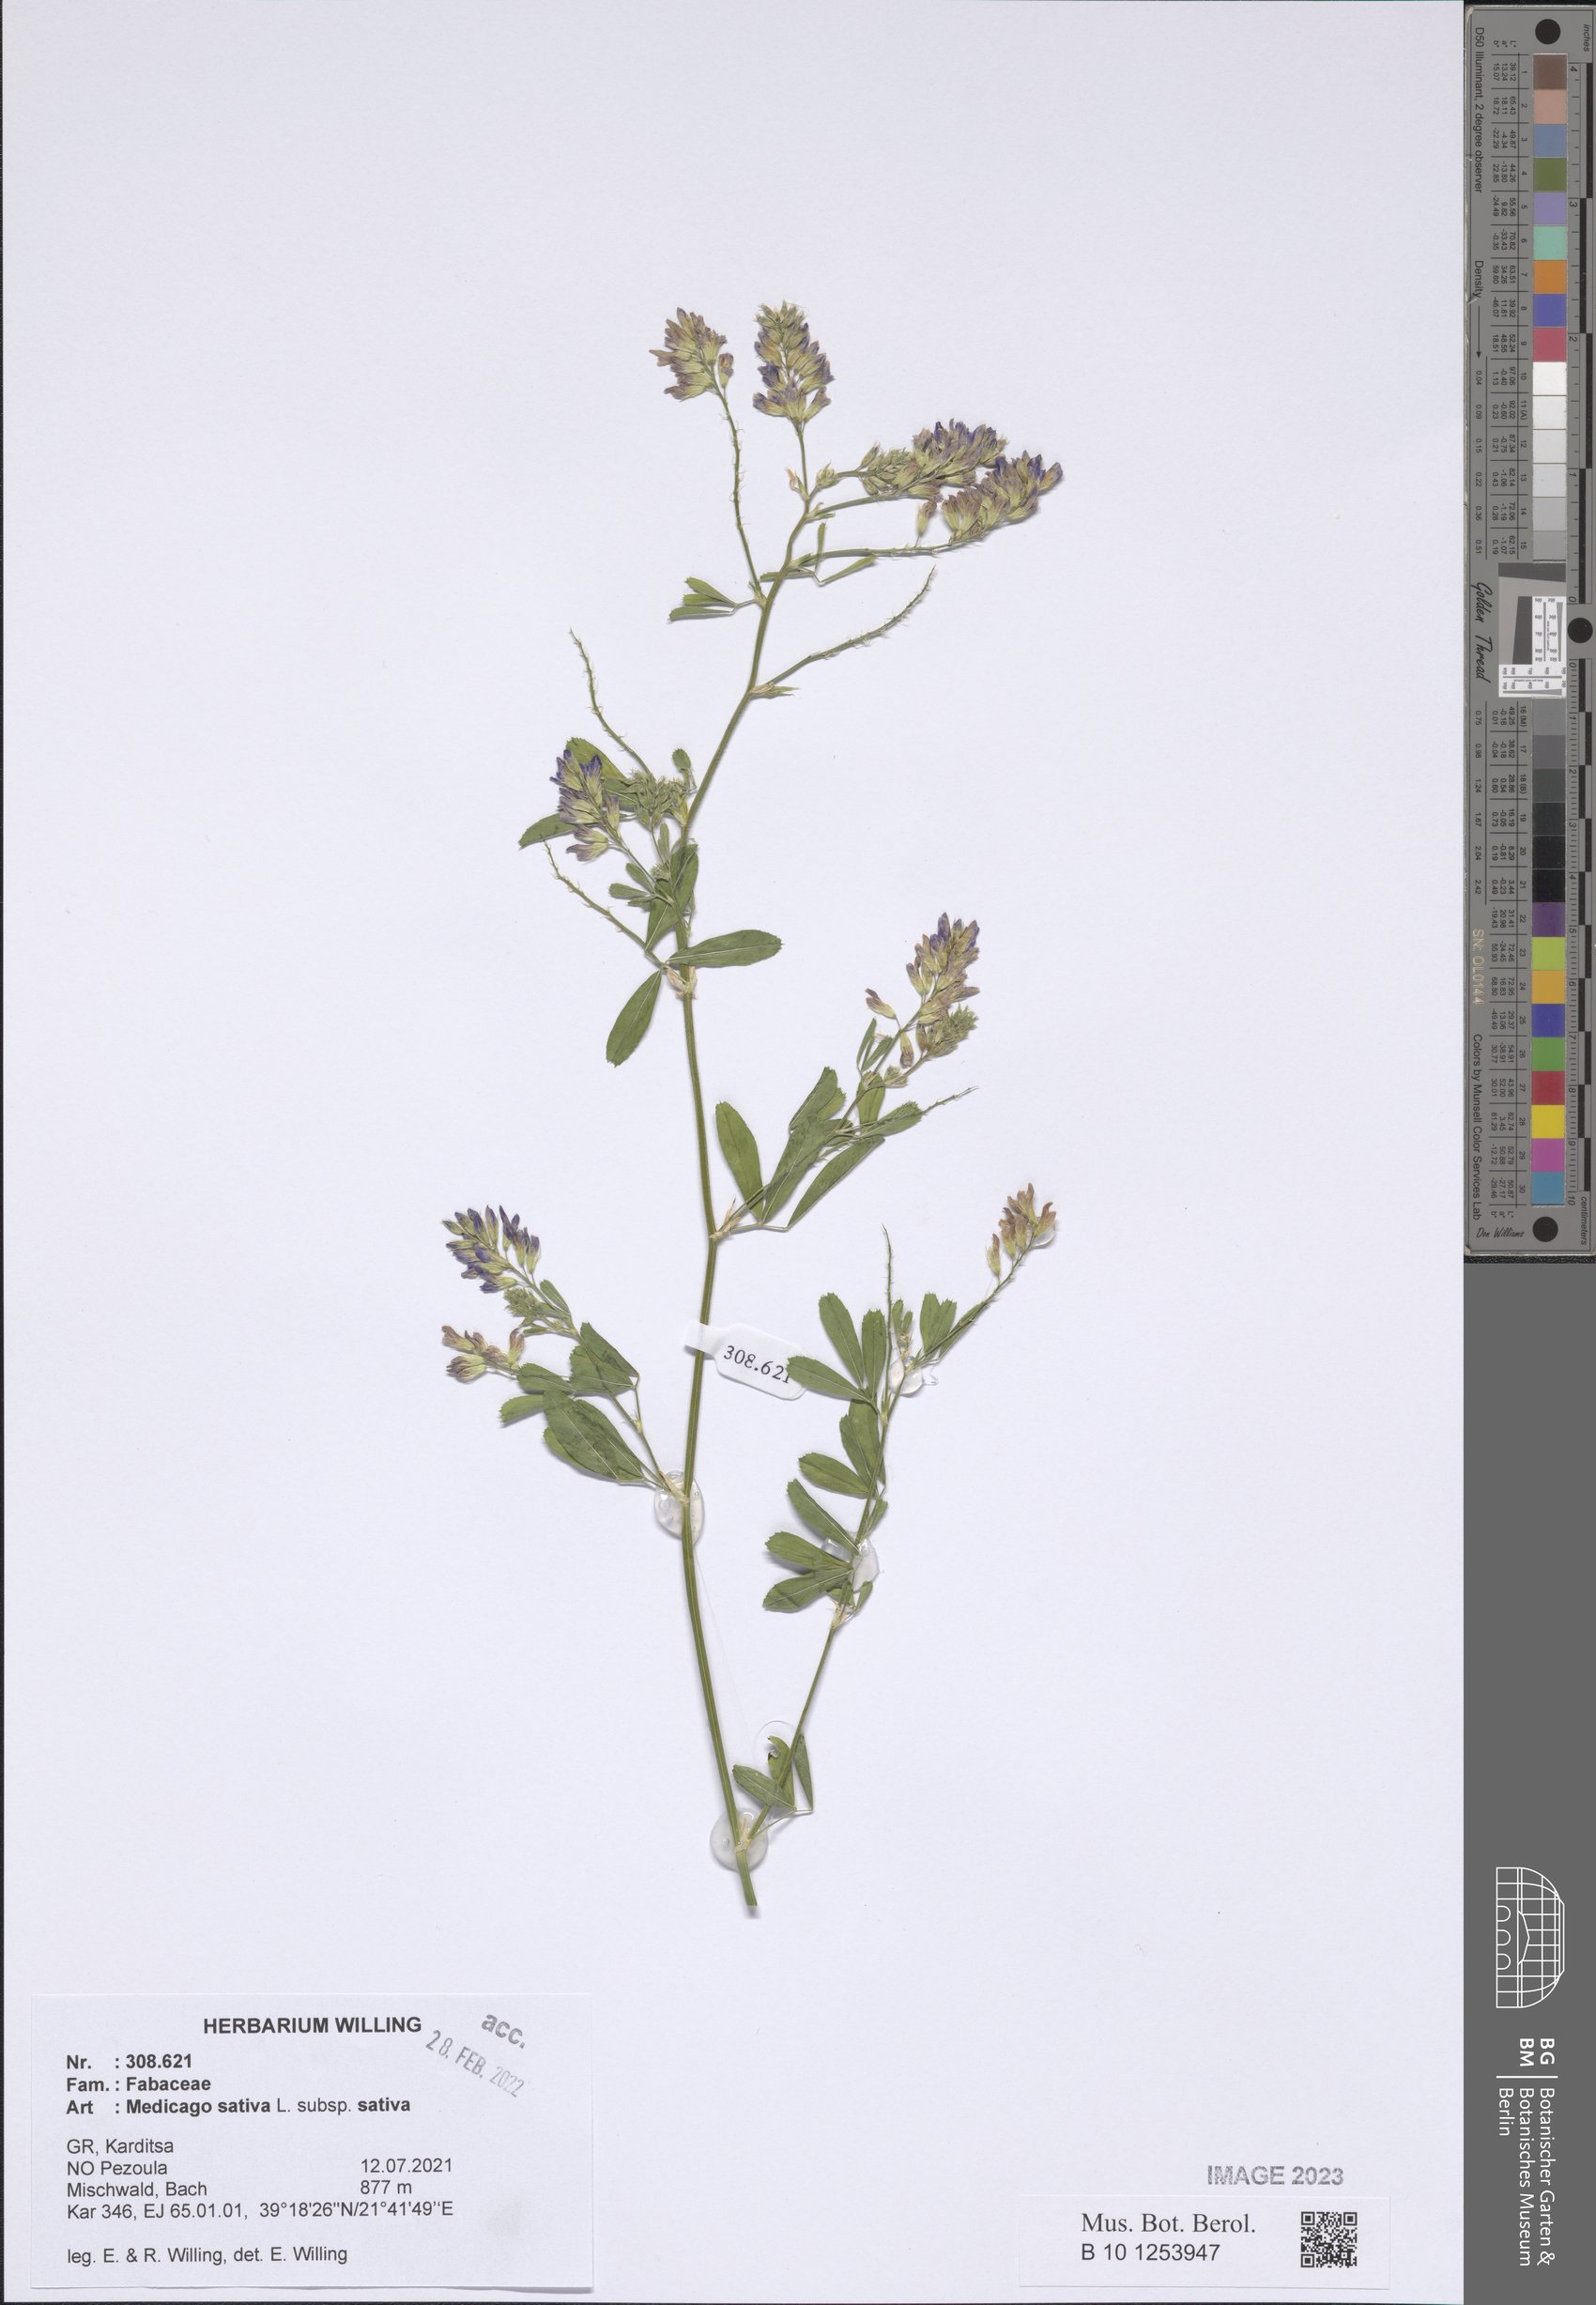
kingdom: Plantae
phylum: Tracheophyta
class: Magnoliopsida
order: Fabales
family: Fabaceae
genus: Medicago
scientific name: Medicago sativa
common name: Alfalfa
